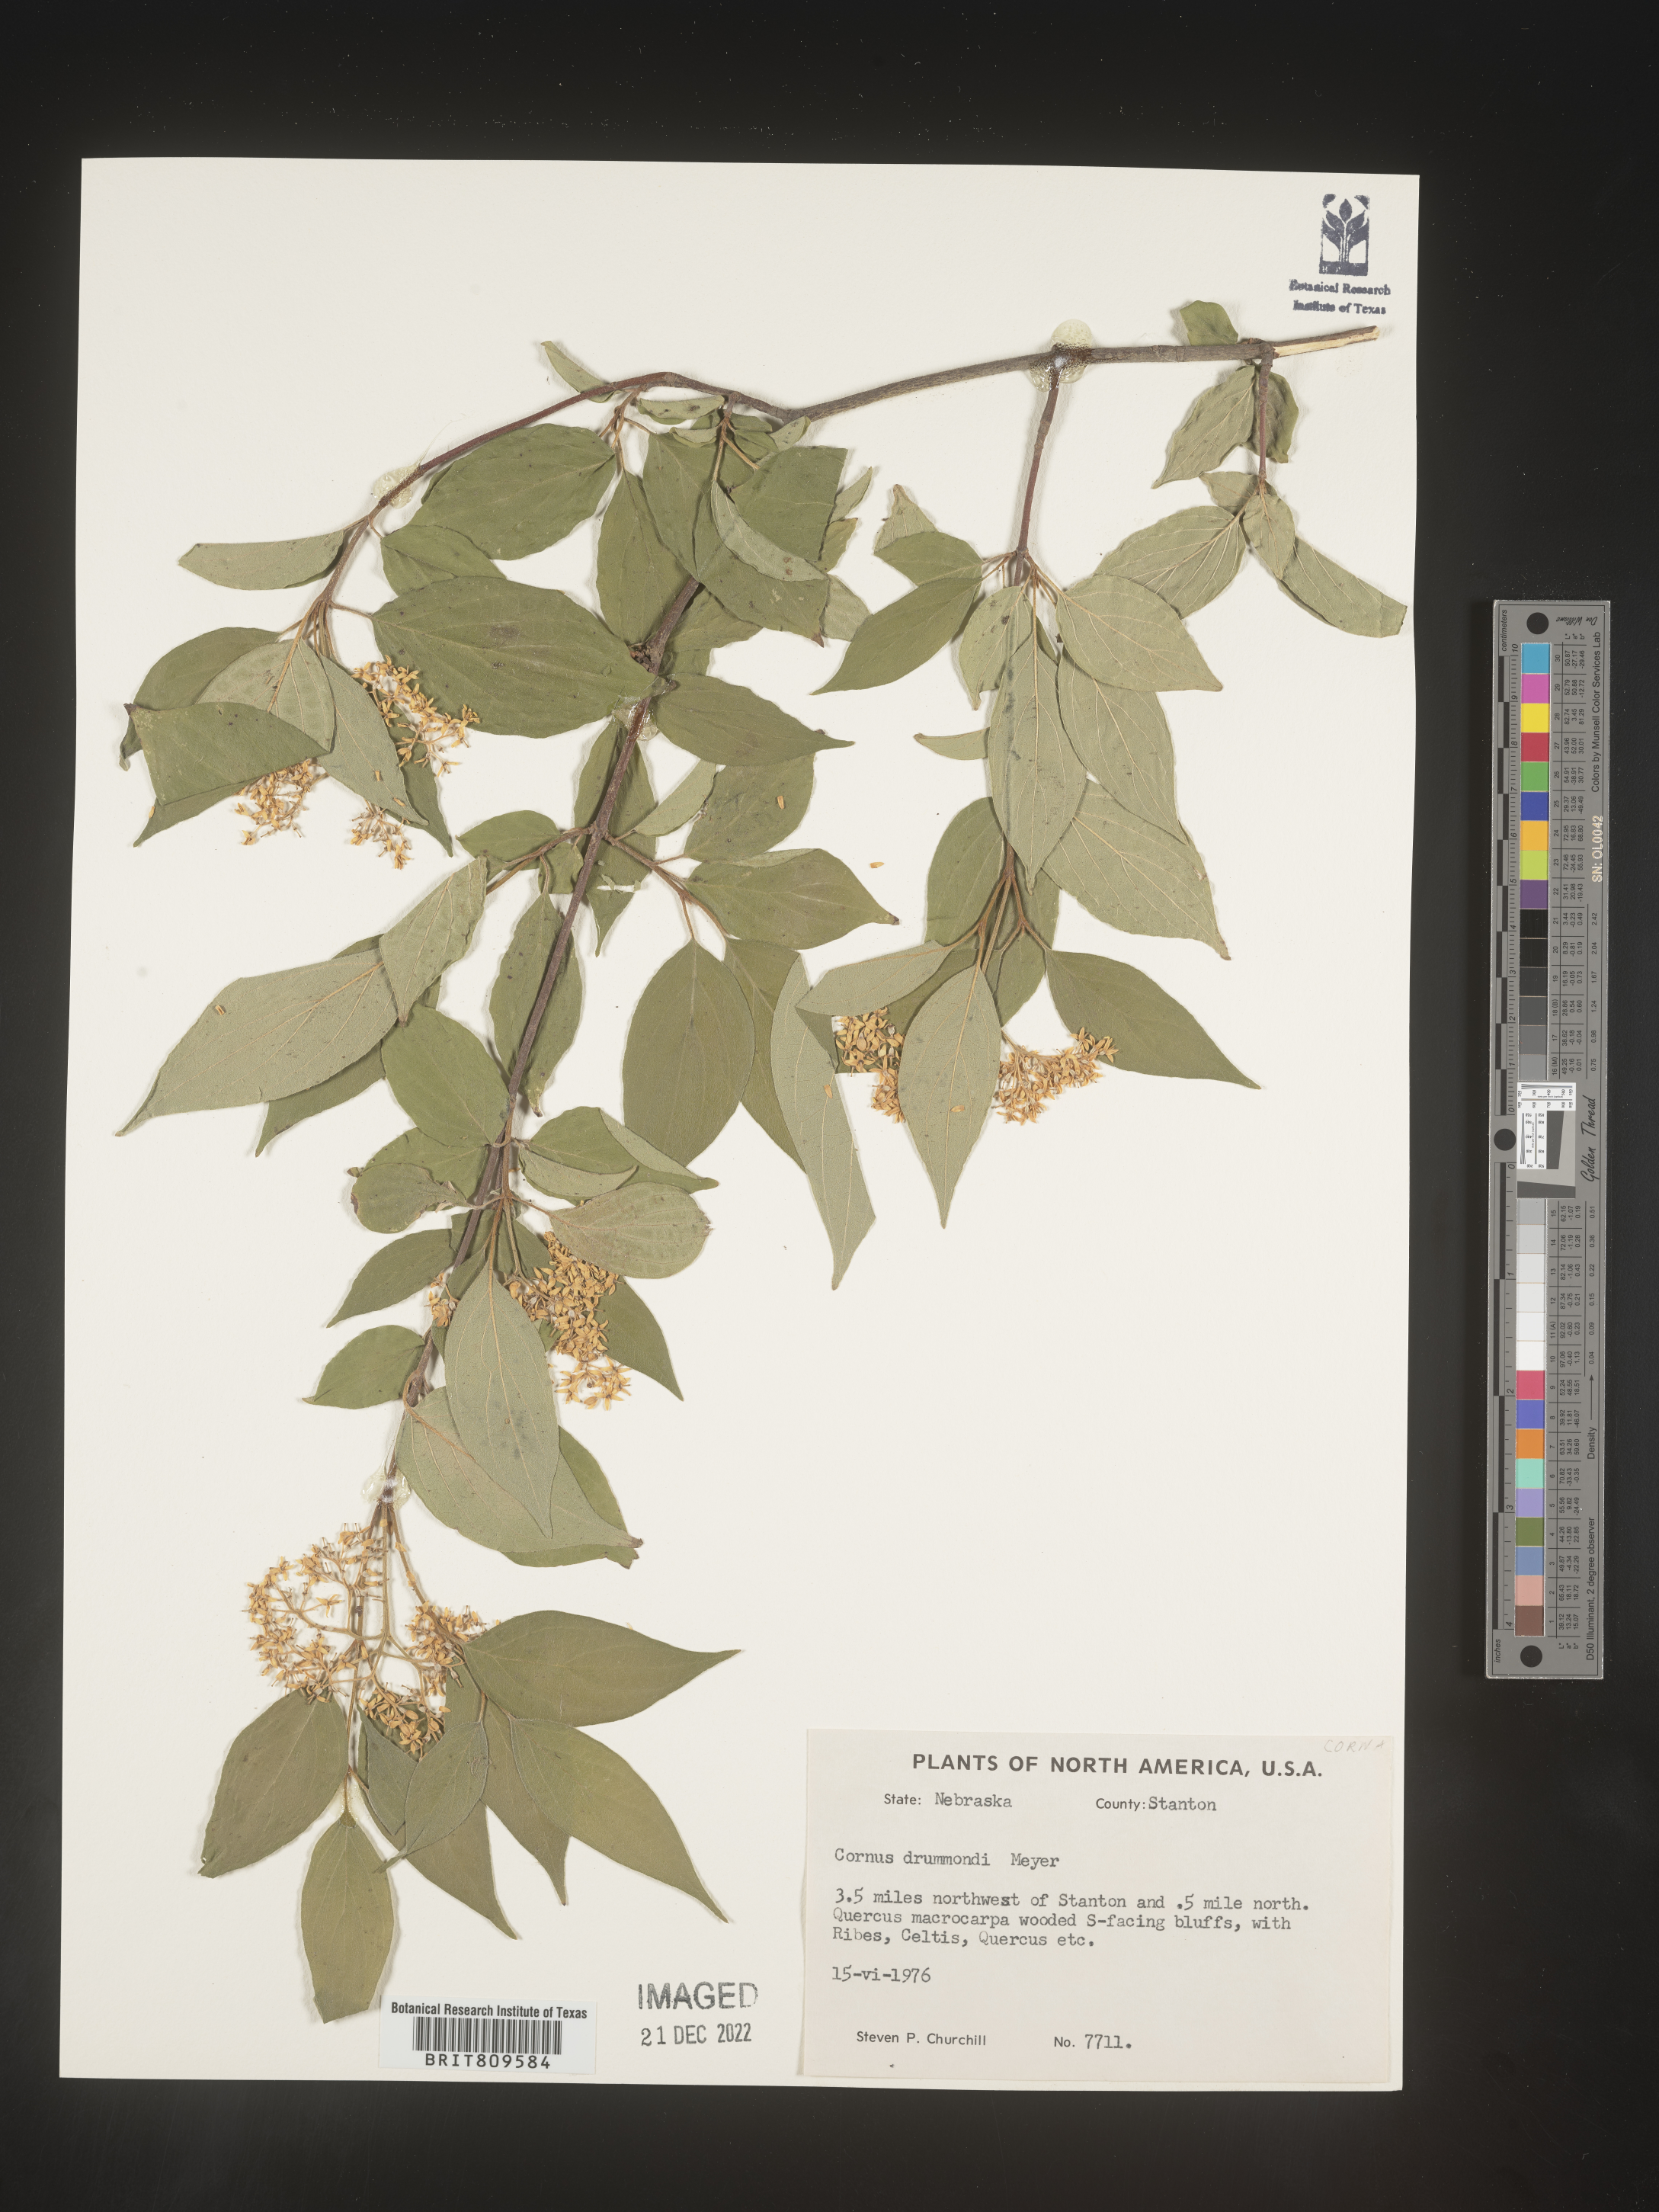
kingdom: Plantae
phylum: Tracheophyta
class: Magnoliopsida
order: Cornales
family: Cornaceae
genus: Cornus
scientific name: Cornus drummondii
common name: Rough-leaf dogwood
